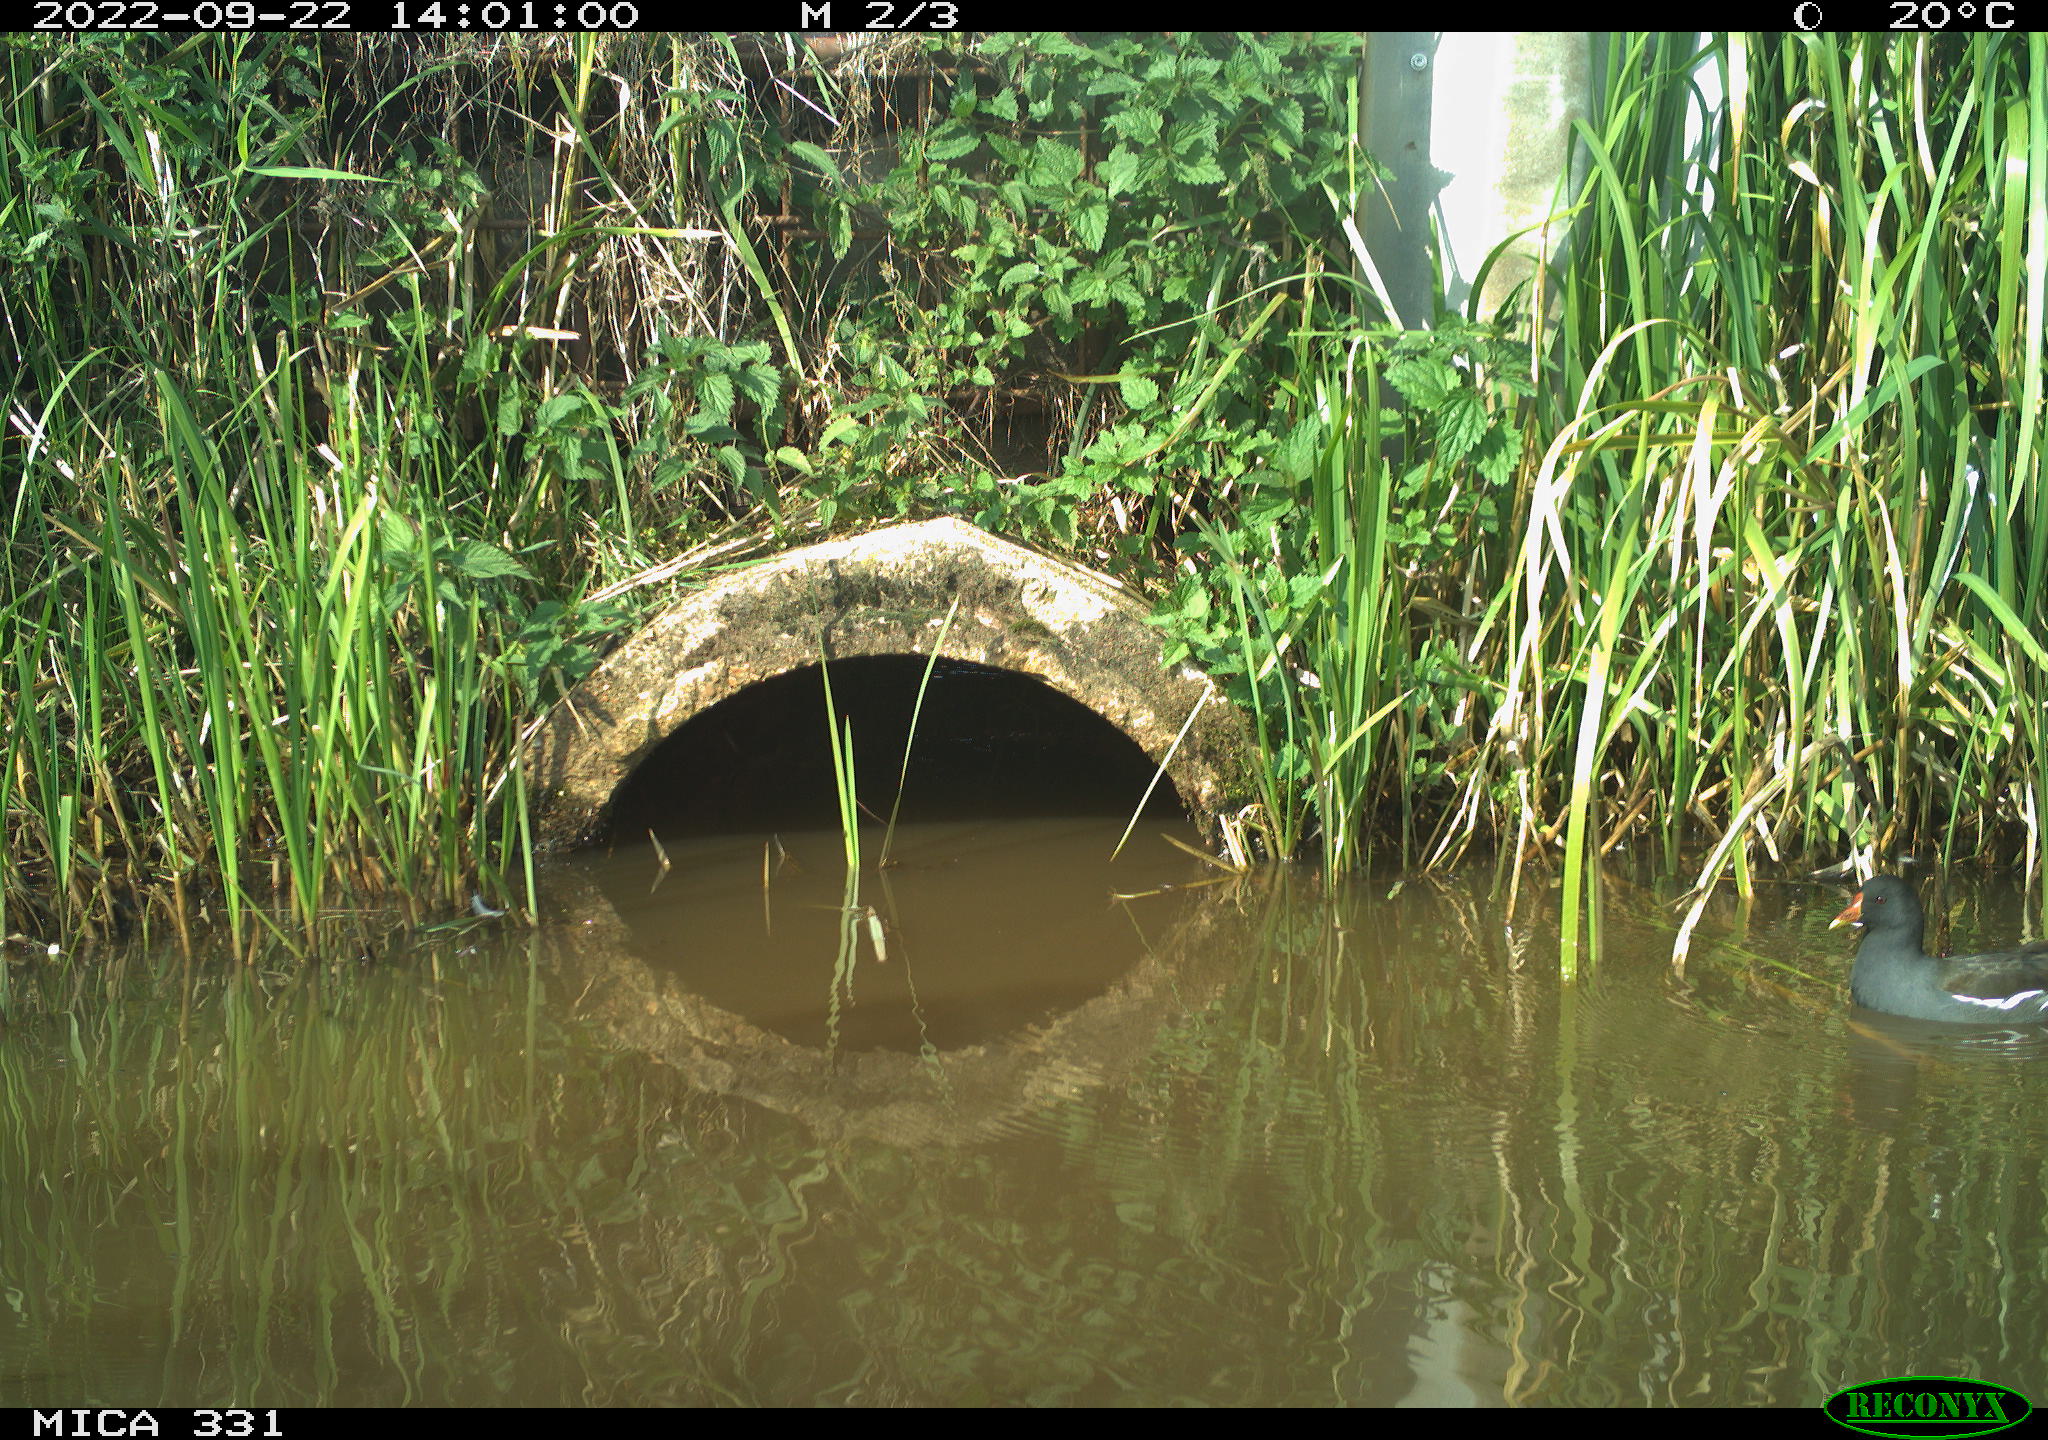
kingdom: Animalia
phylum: Chordata
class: Aves
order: Gruiformes
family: Rallidae
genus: Gallinula
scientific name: Gallinula chloropus
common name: Common moorhen
